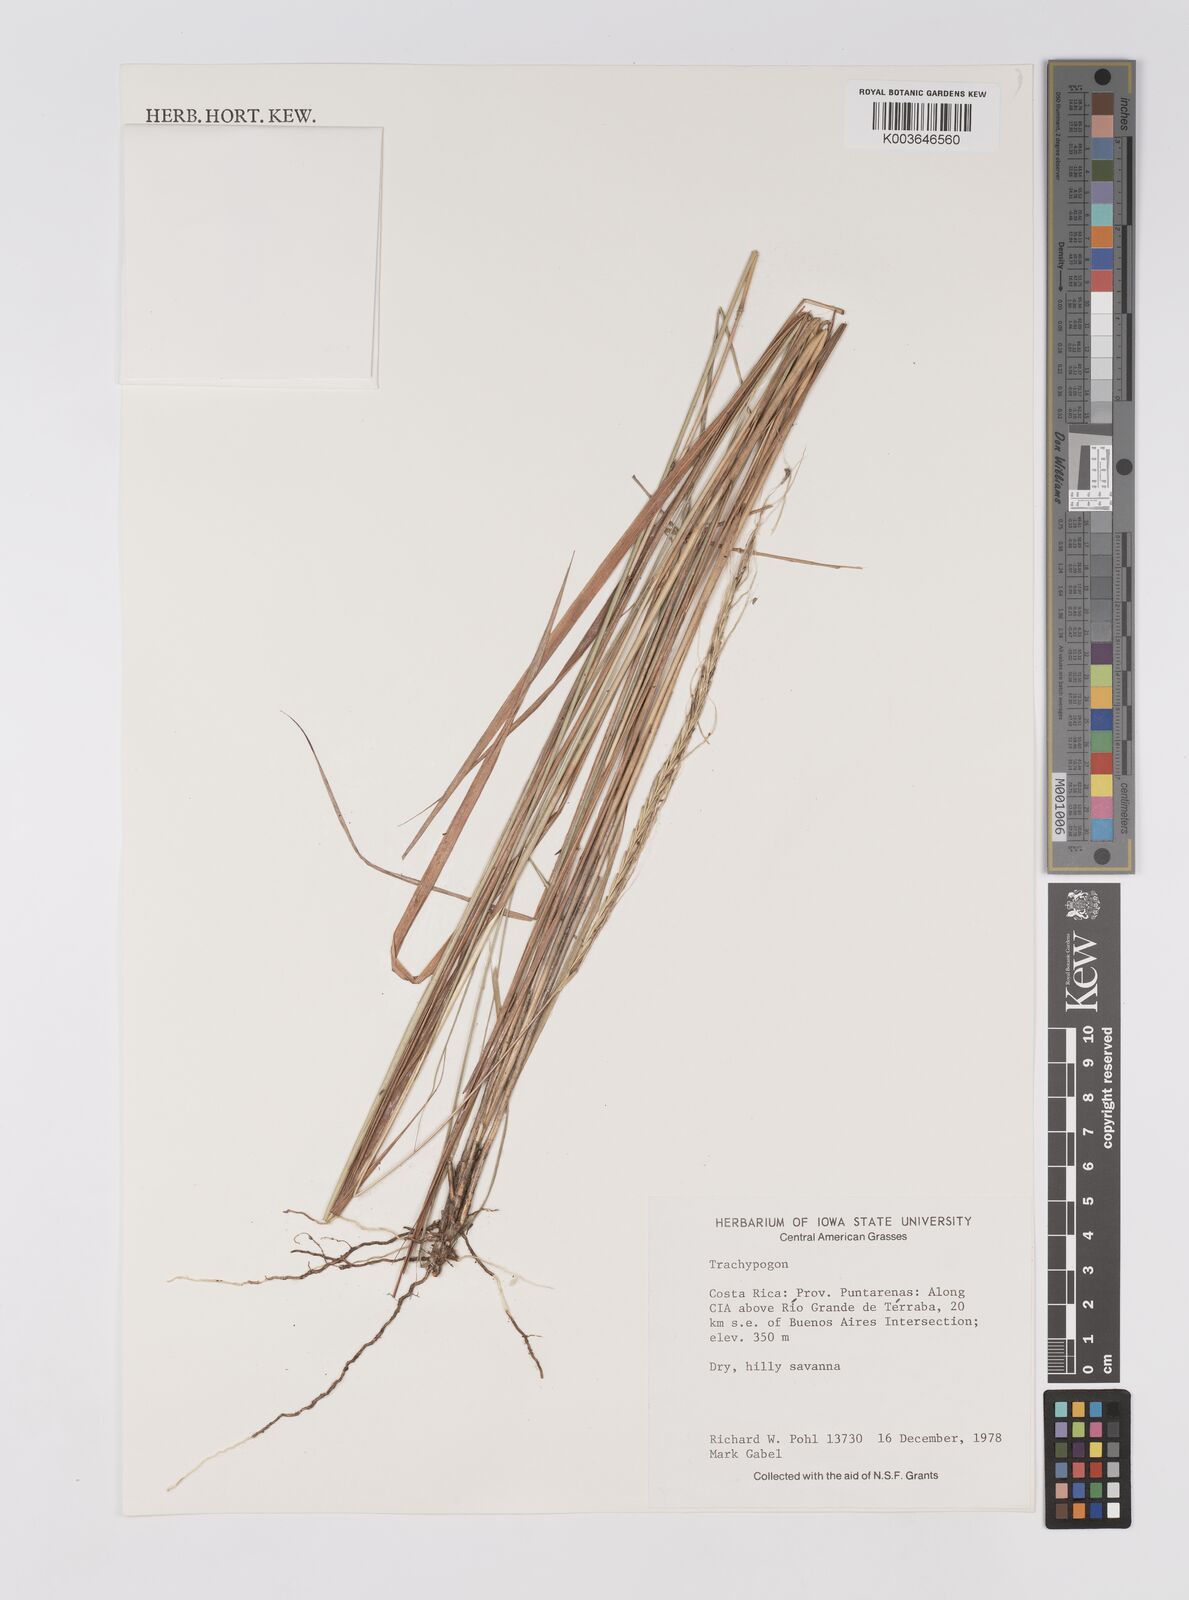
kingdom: Plantae
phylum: Tracheophyta
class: Liliopsida
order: Poales
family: Poaceae
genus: Trachypogon
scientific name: Trachypogon
